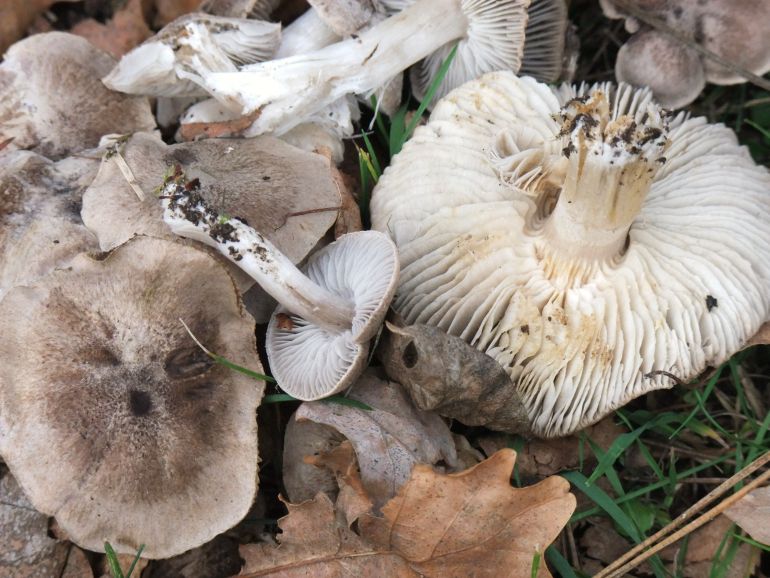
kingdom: Fungi
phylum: Basidiomycota
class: Agaricomycetes
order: Agaricales
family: Tricholomataceae
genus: Tricholoma
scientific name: Tricholoma scalpturatum
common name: gulplettet ridderhat
